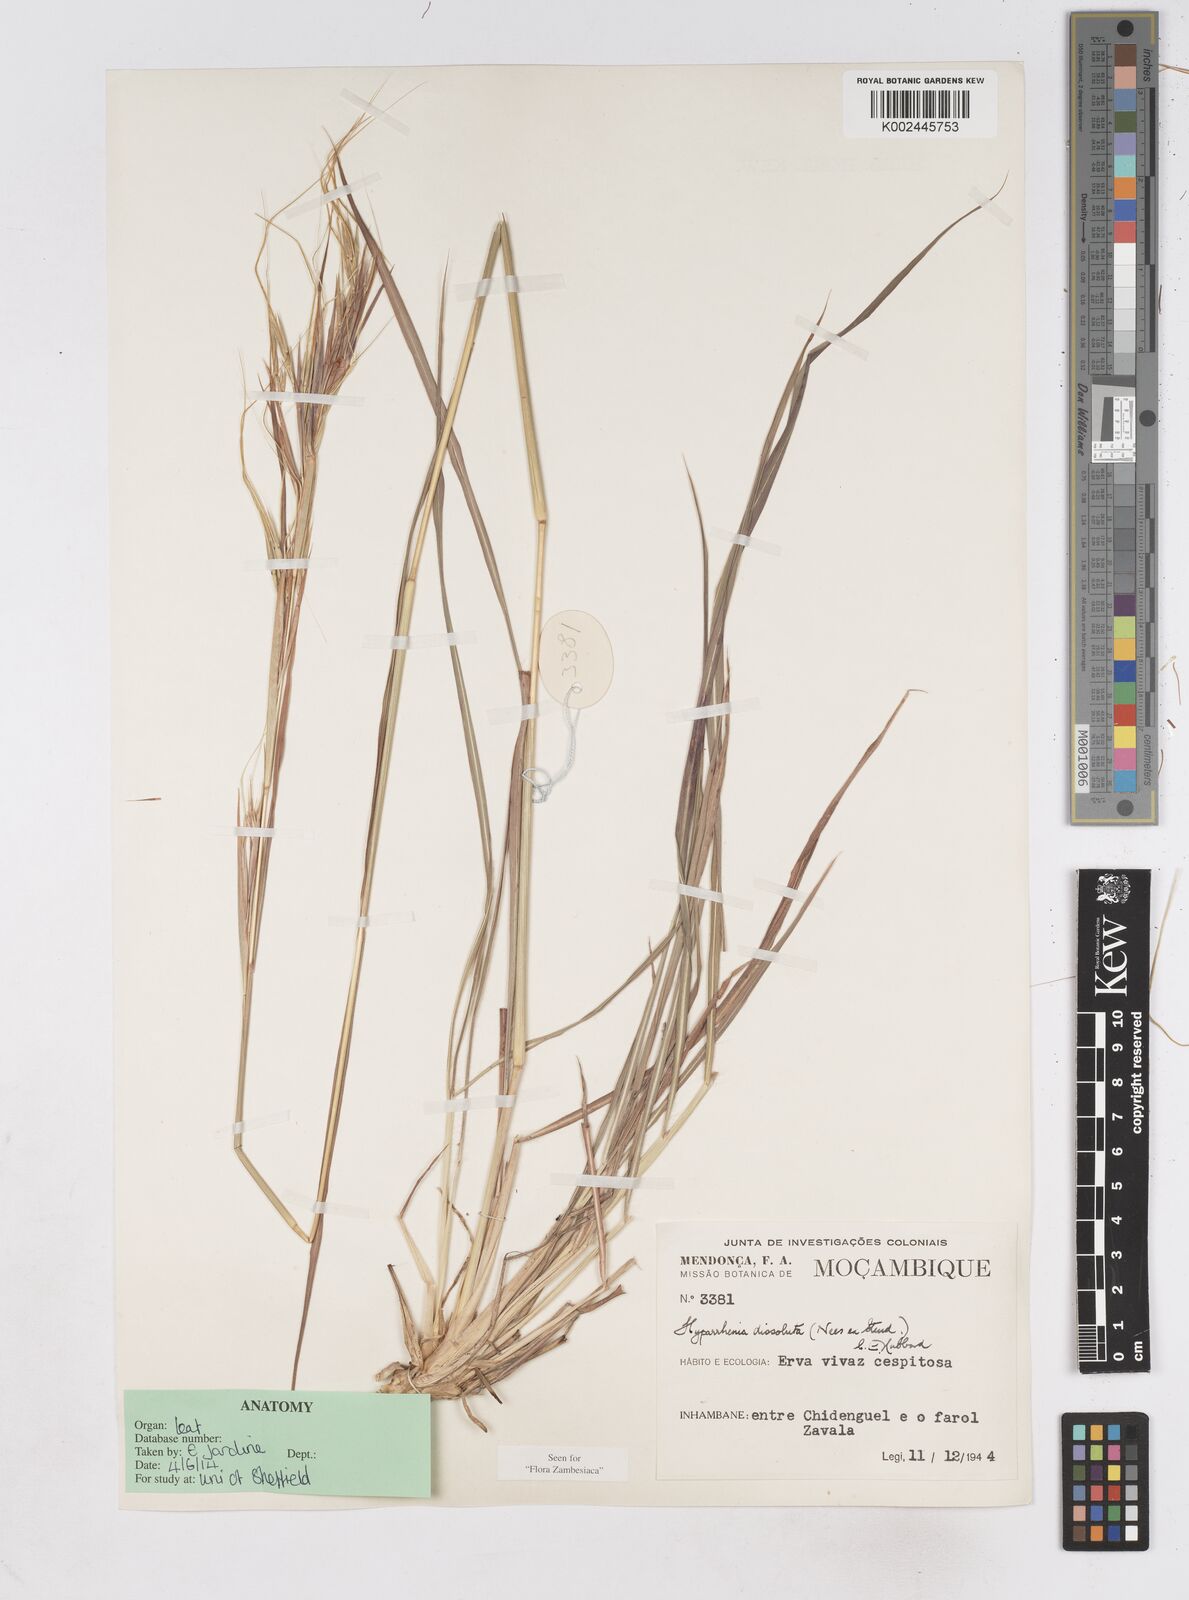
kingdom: Plantae
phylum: Tracheophyta
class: Liliopsida
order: Poales
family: Poaceae
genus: Hyperthelia
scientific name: Hyperthelia dissoluta
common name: Yellow thatching grass
